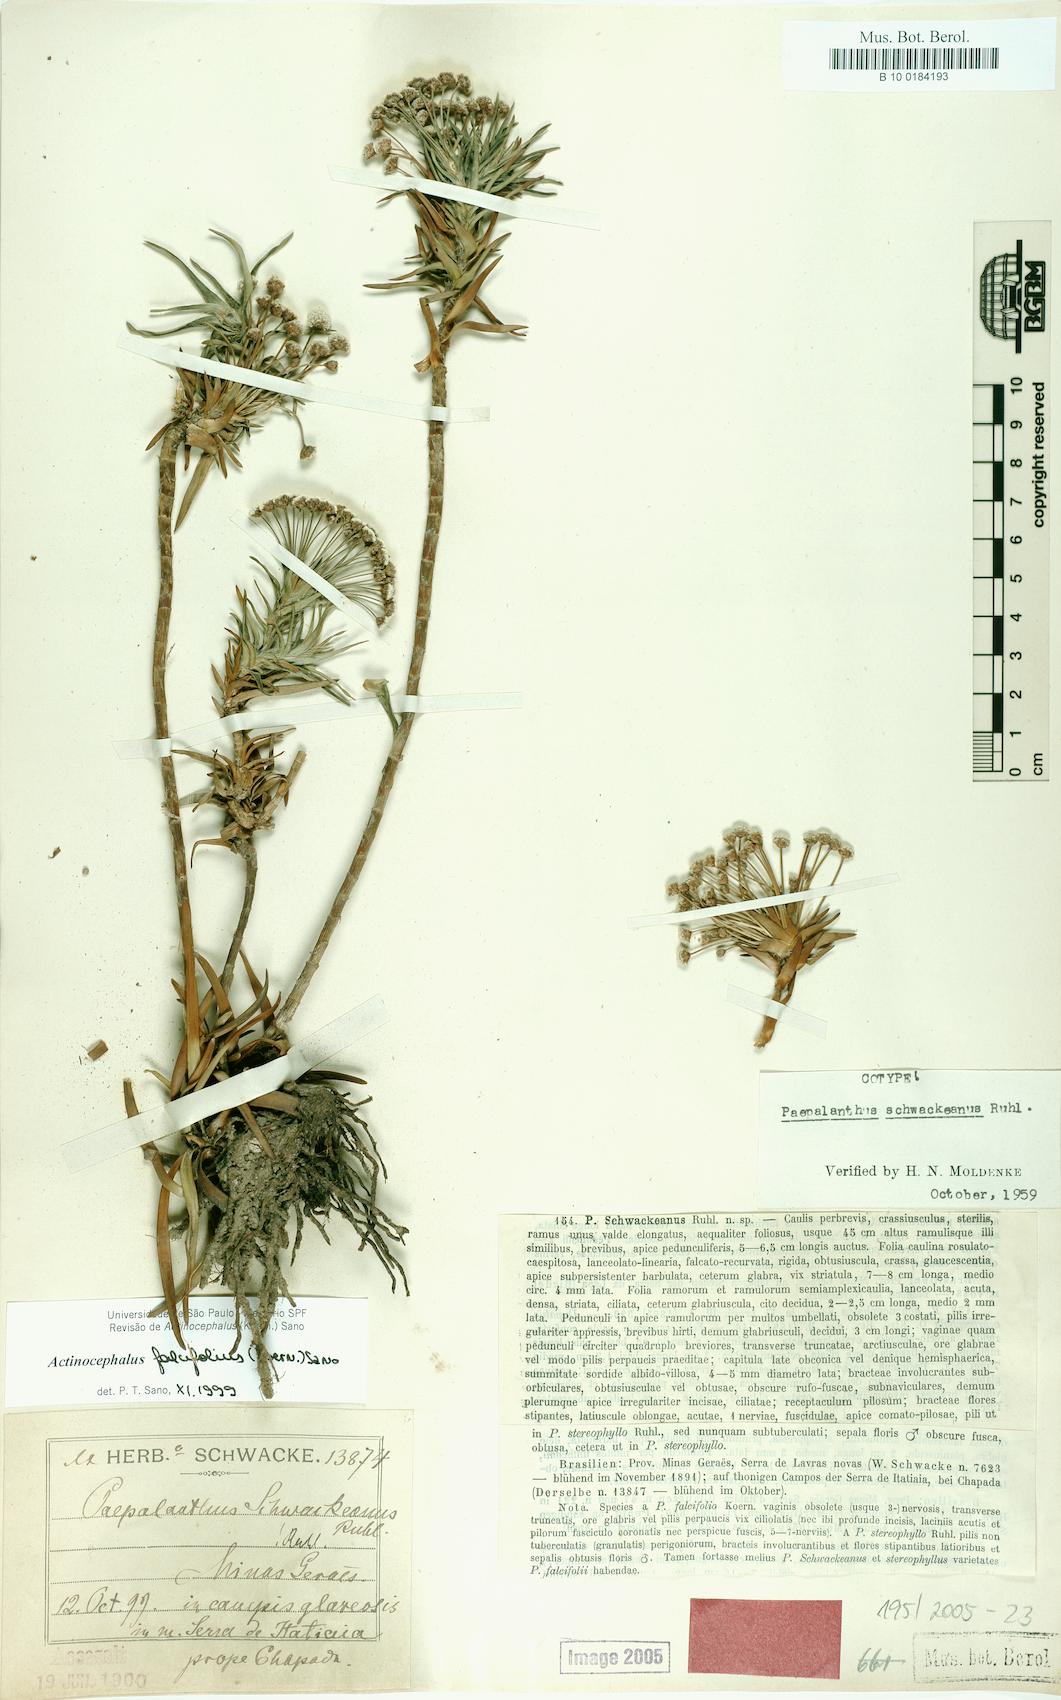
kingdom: Plantae
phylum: Tracheophyta
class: Liliopsida
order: Poales
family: Eriocaulaceae
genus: Paepalanthus
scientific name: Paepalanthus falcifolius
